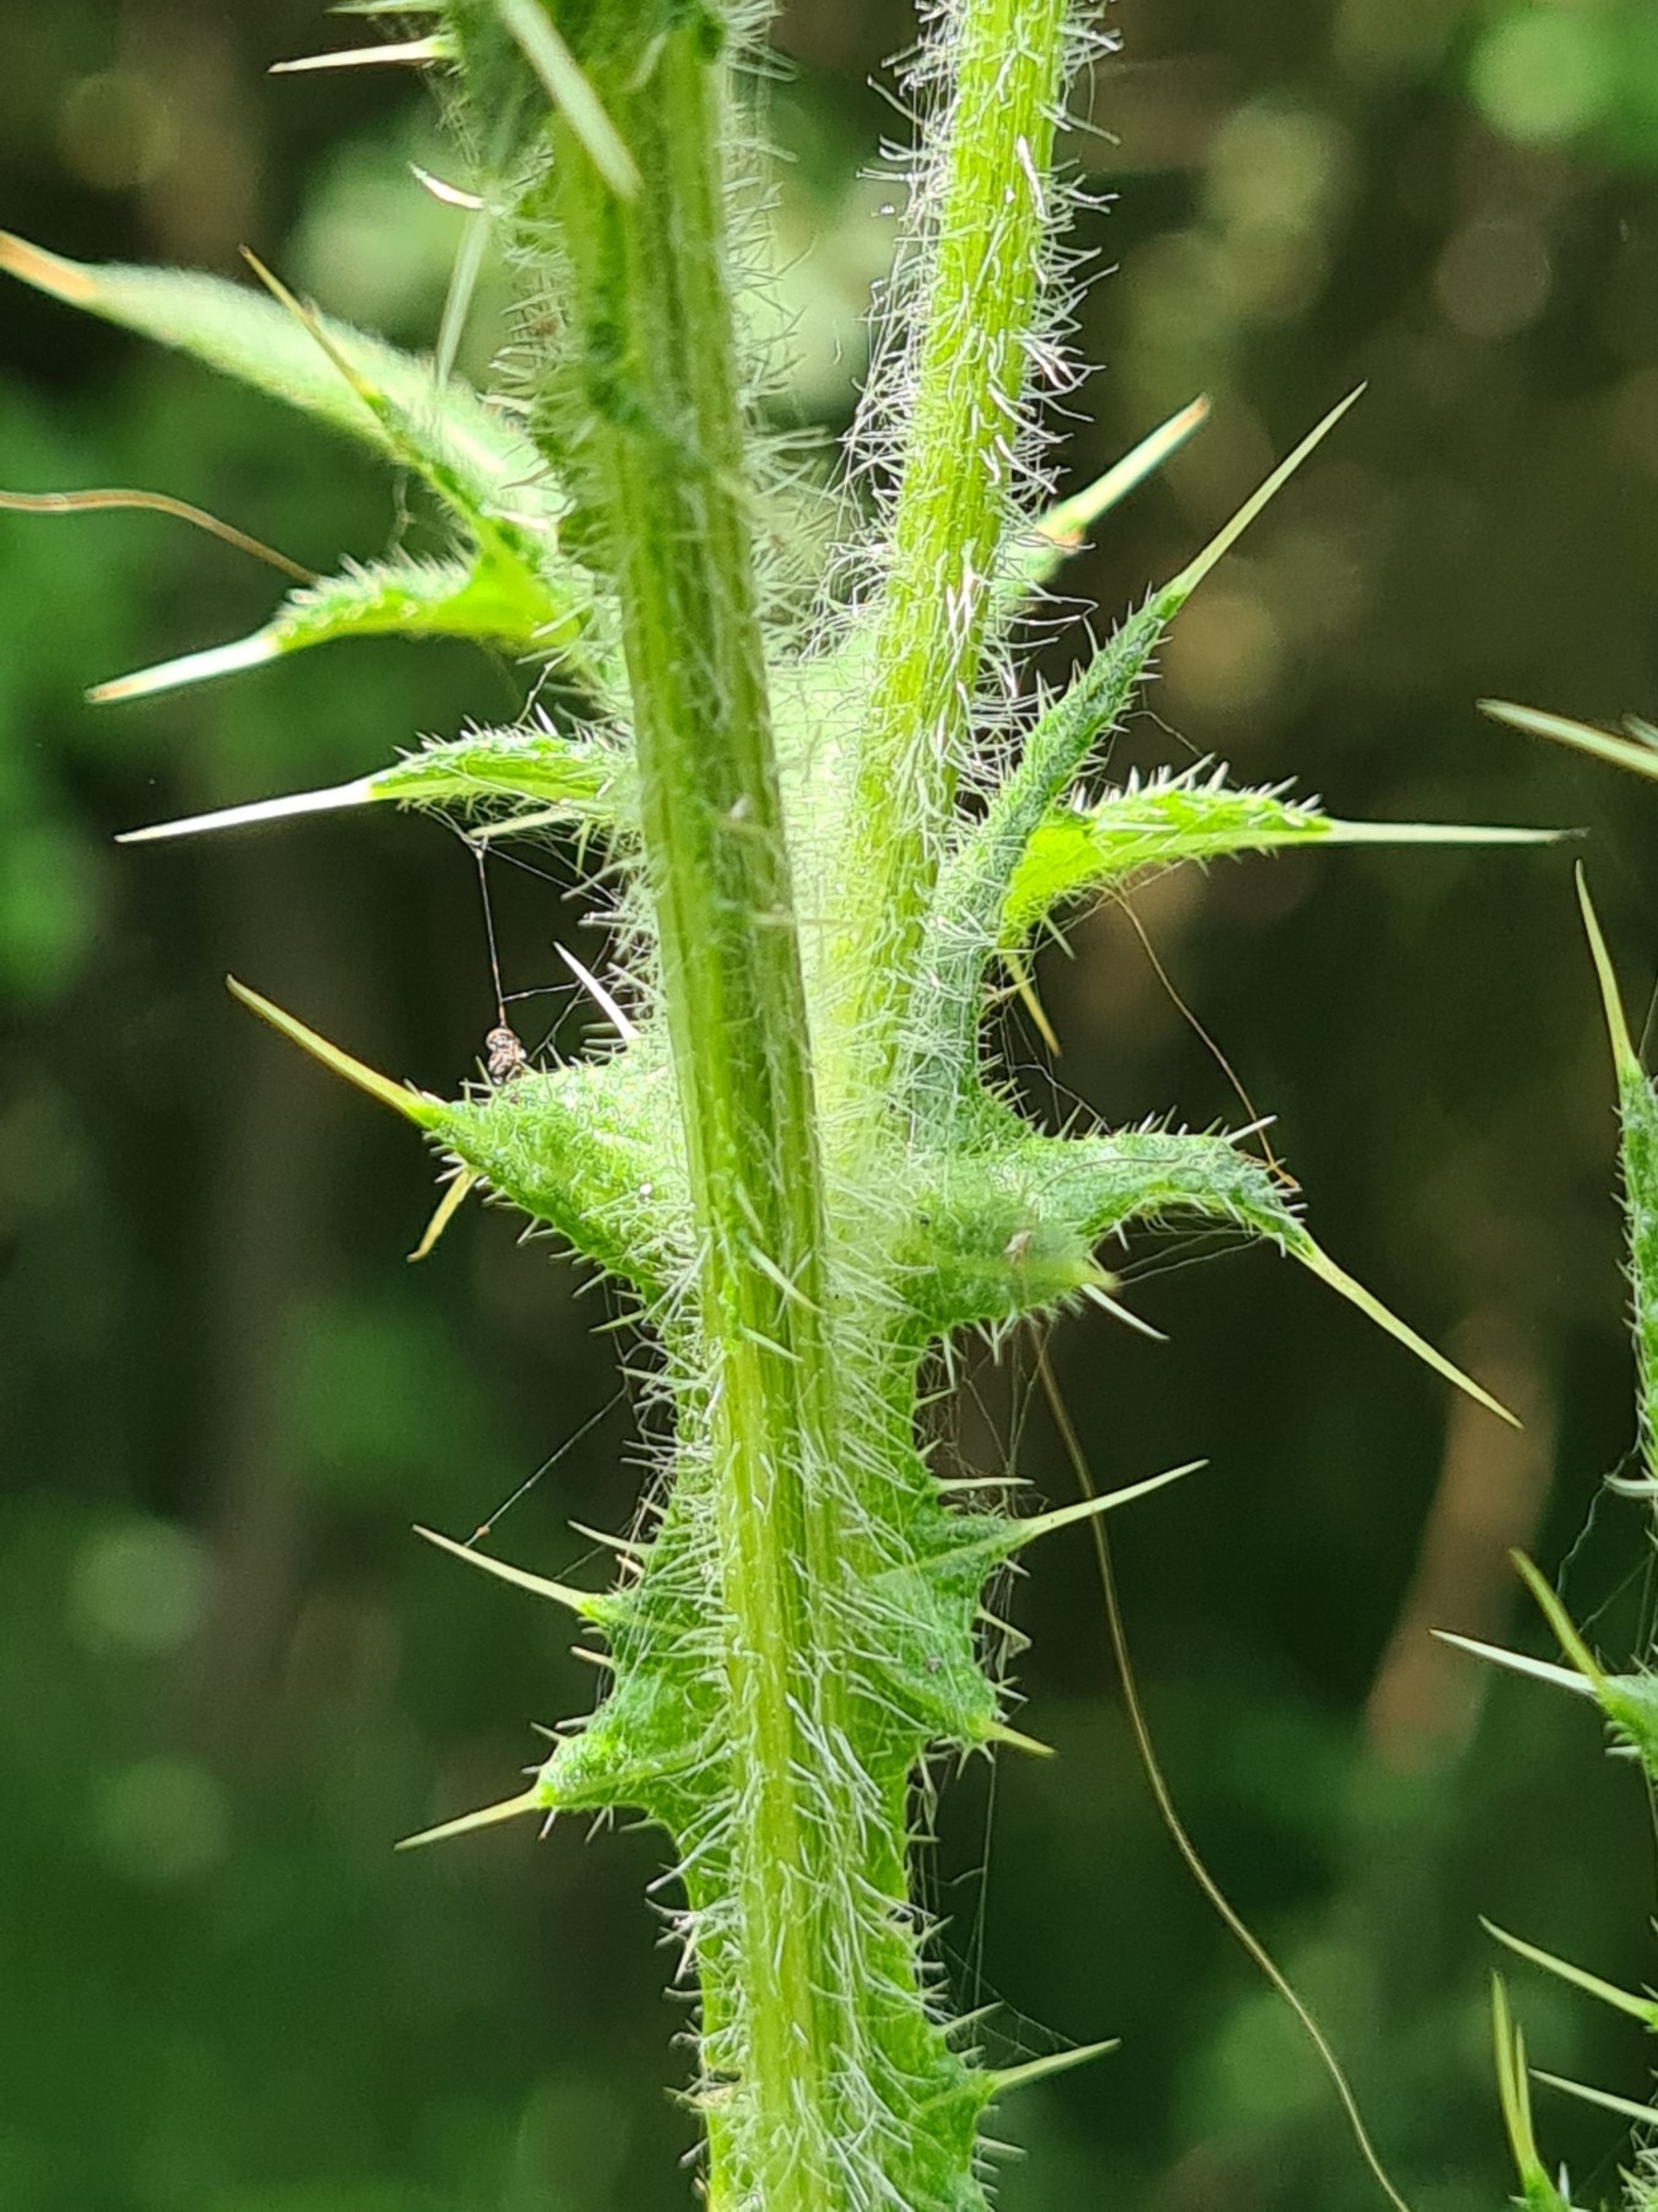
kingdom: Plantae
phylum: Tracheophyta
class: Magnoliopsida
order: Asterales
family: Asteraceae
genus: Cirsium
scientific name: Cirsium vulgare
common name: Horse-tidsel
